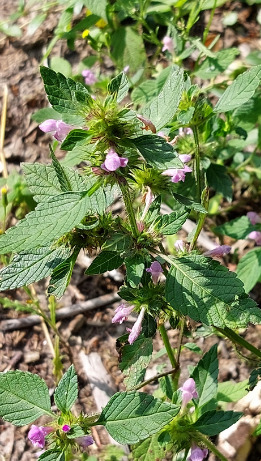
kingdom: Plantae
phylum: Tracheophyta
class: Magnoliopsida
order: Lamiales
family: Lamiaceae
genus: Galeopsis
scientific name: Galeopsis
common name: Hanekroslægten
